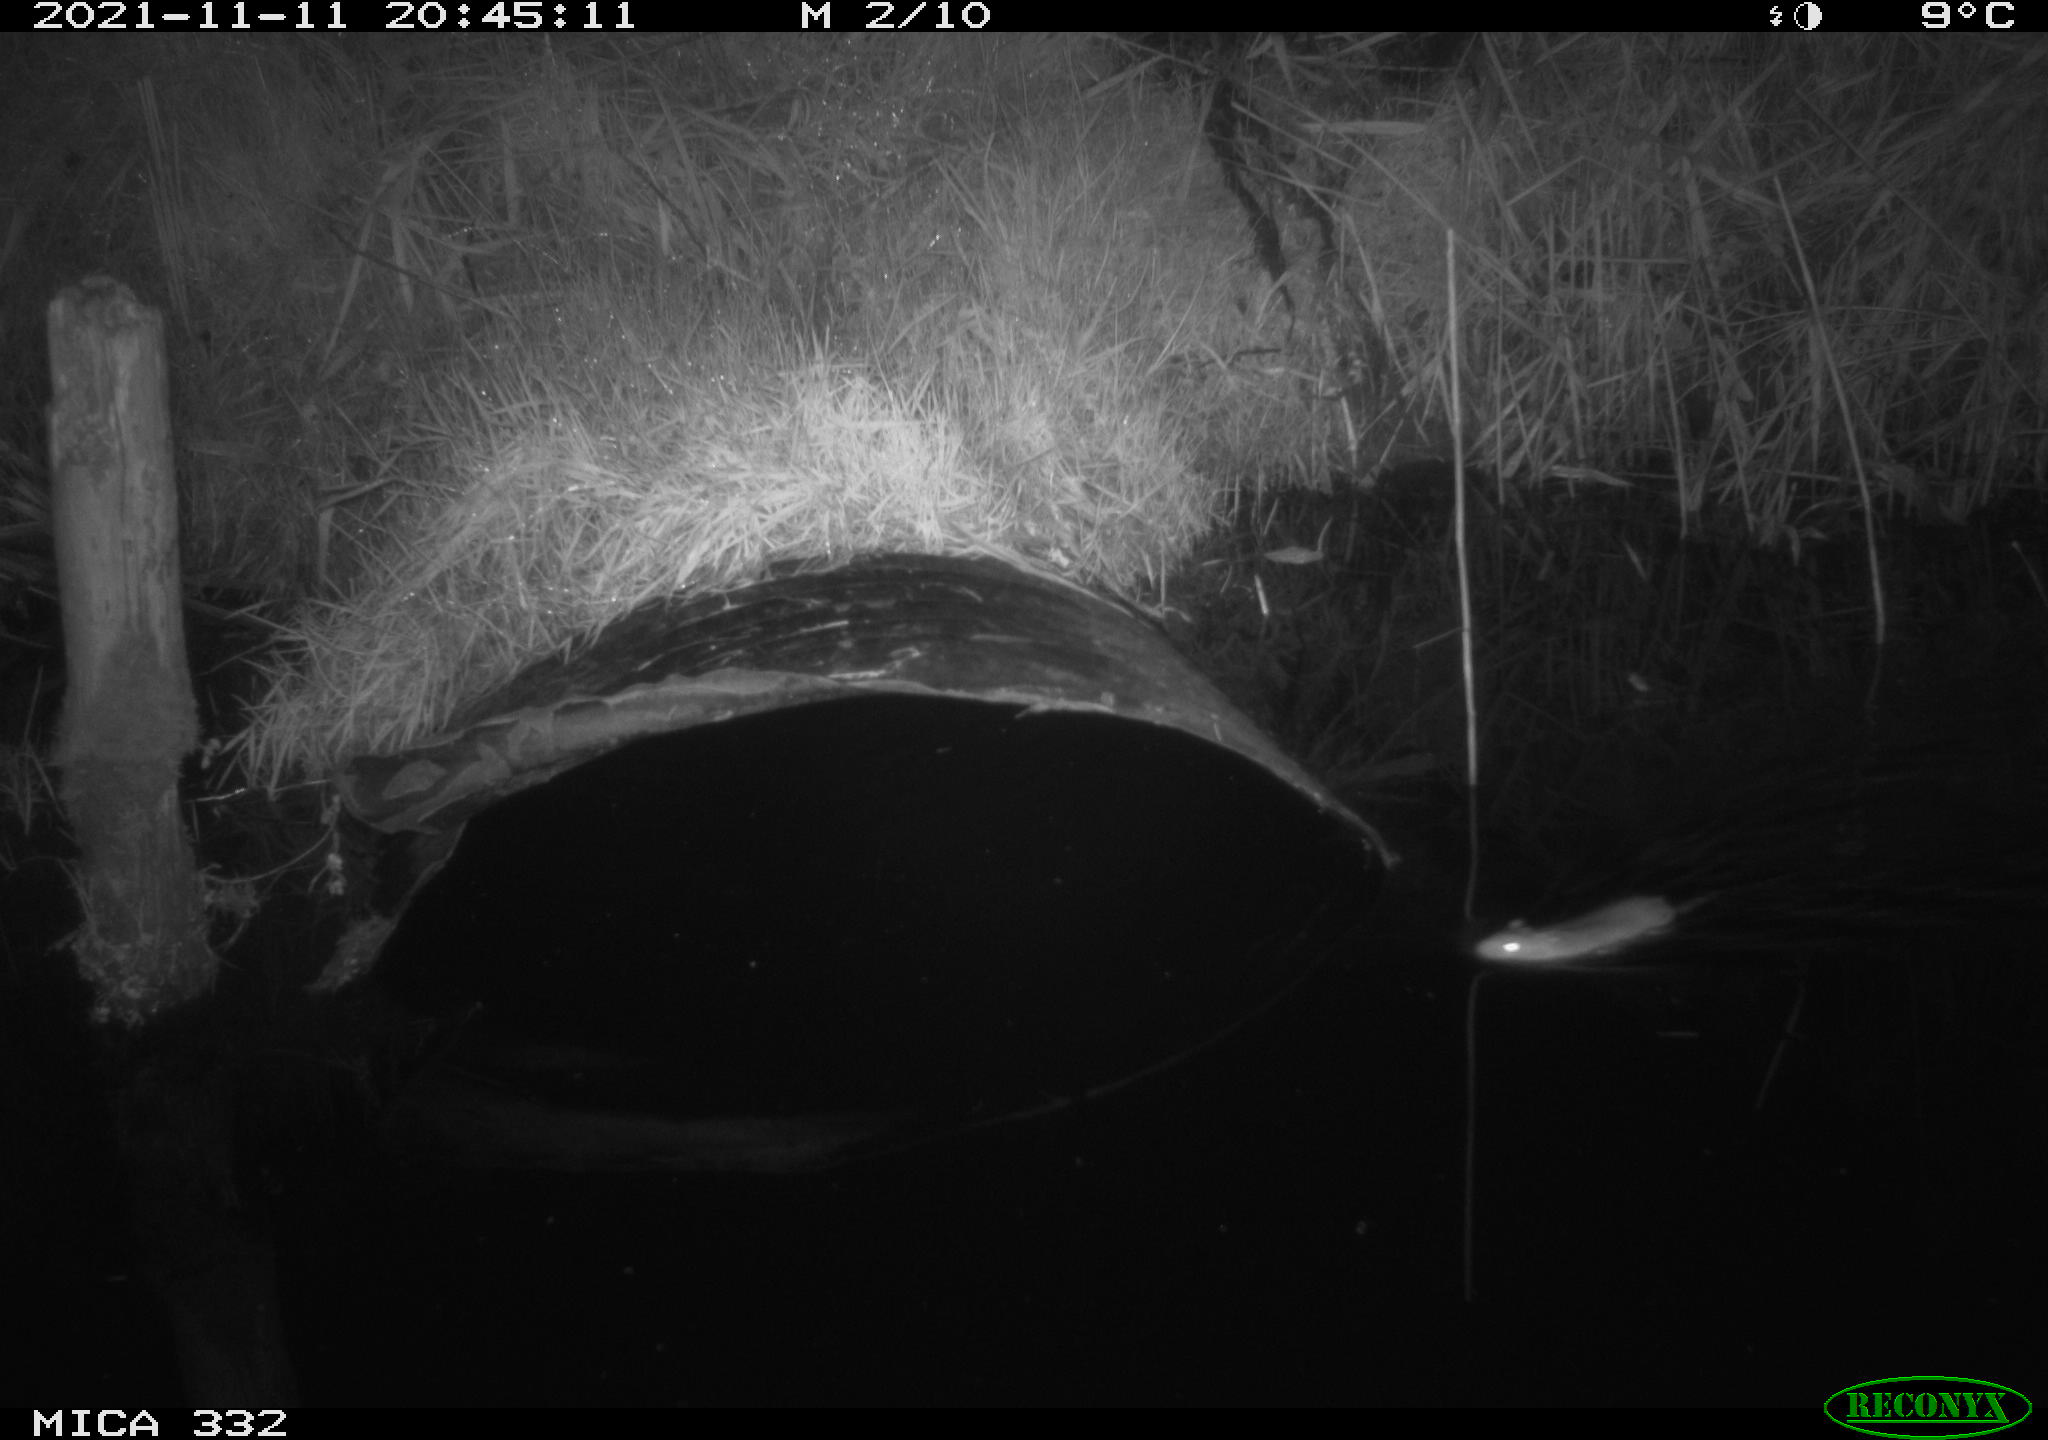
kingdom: Animalia
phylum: Chordata
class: Mammalia
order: Rodentia
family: Muridae
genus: Rattus
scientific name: Rattus norvegicus
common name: Brown rat
